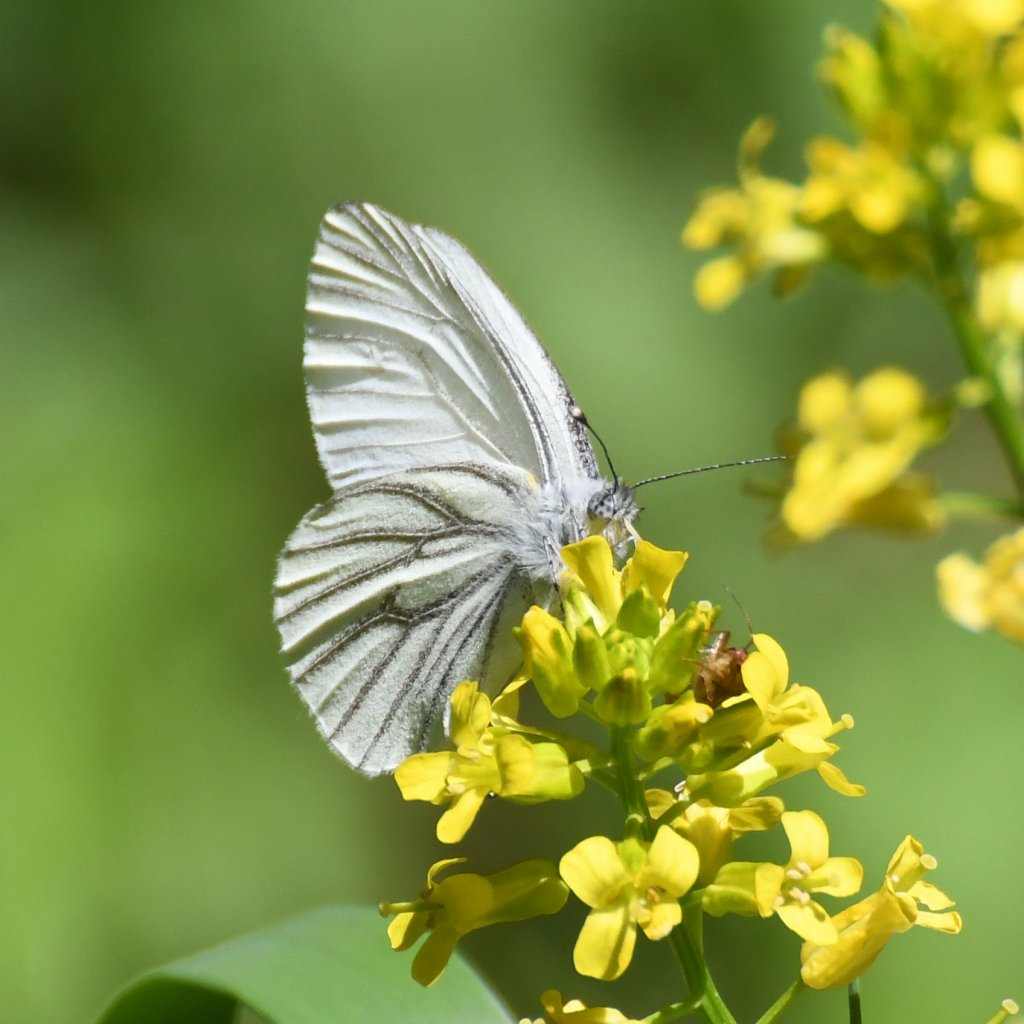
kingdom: Animalia
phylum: Arthropoda
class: Insecta
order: Lepidoptera
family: Pieridae
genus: Pieris
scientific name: Pieris oleracea
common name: Mustard White
